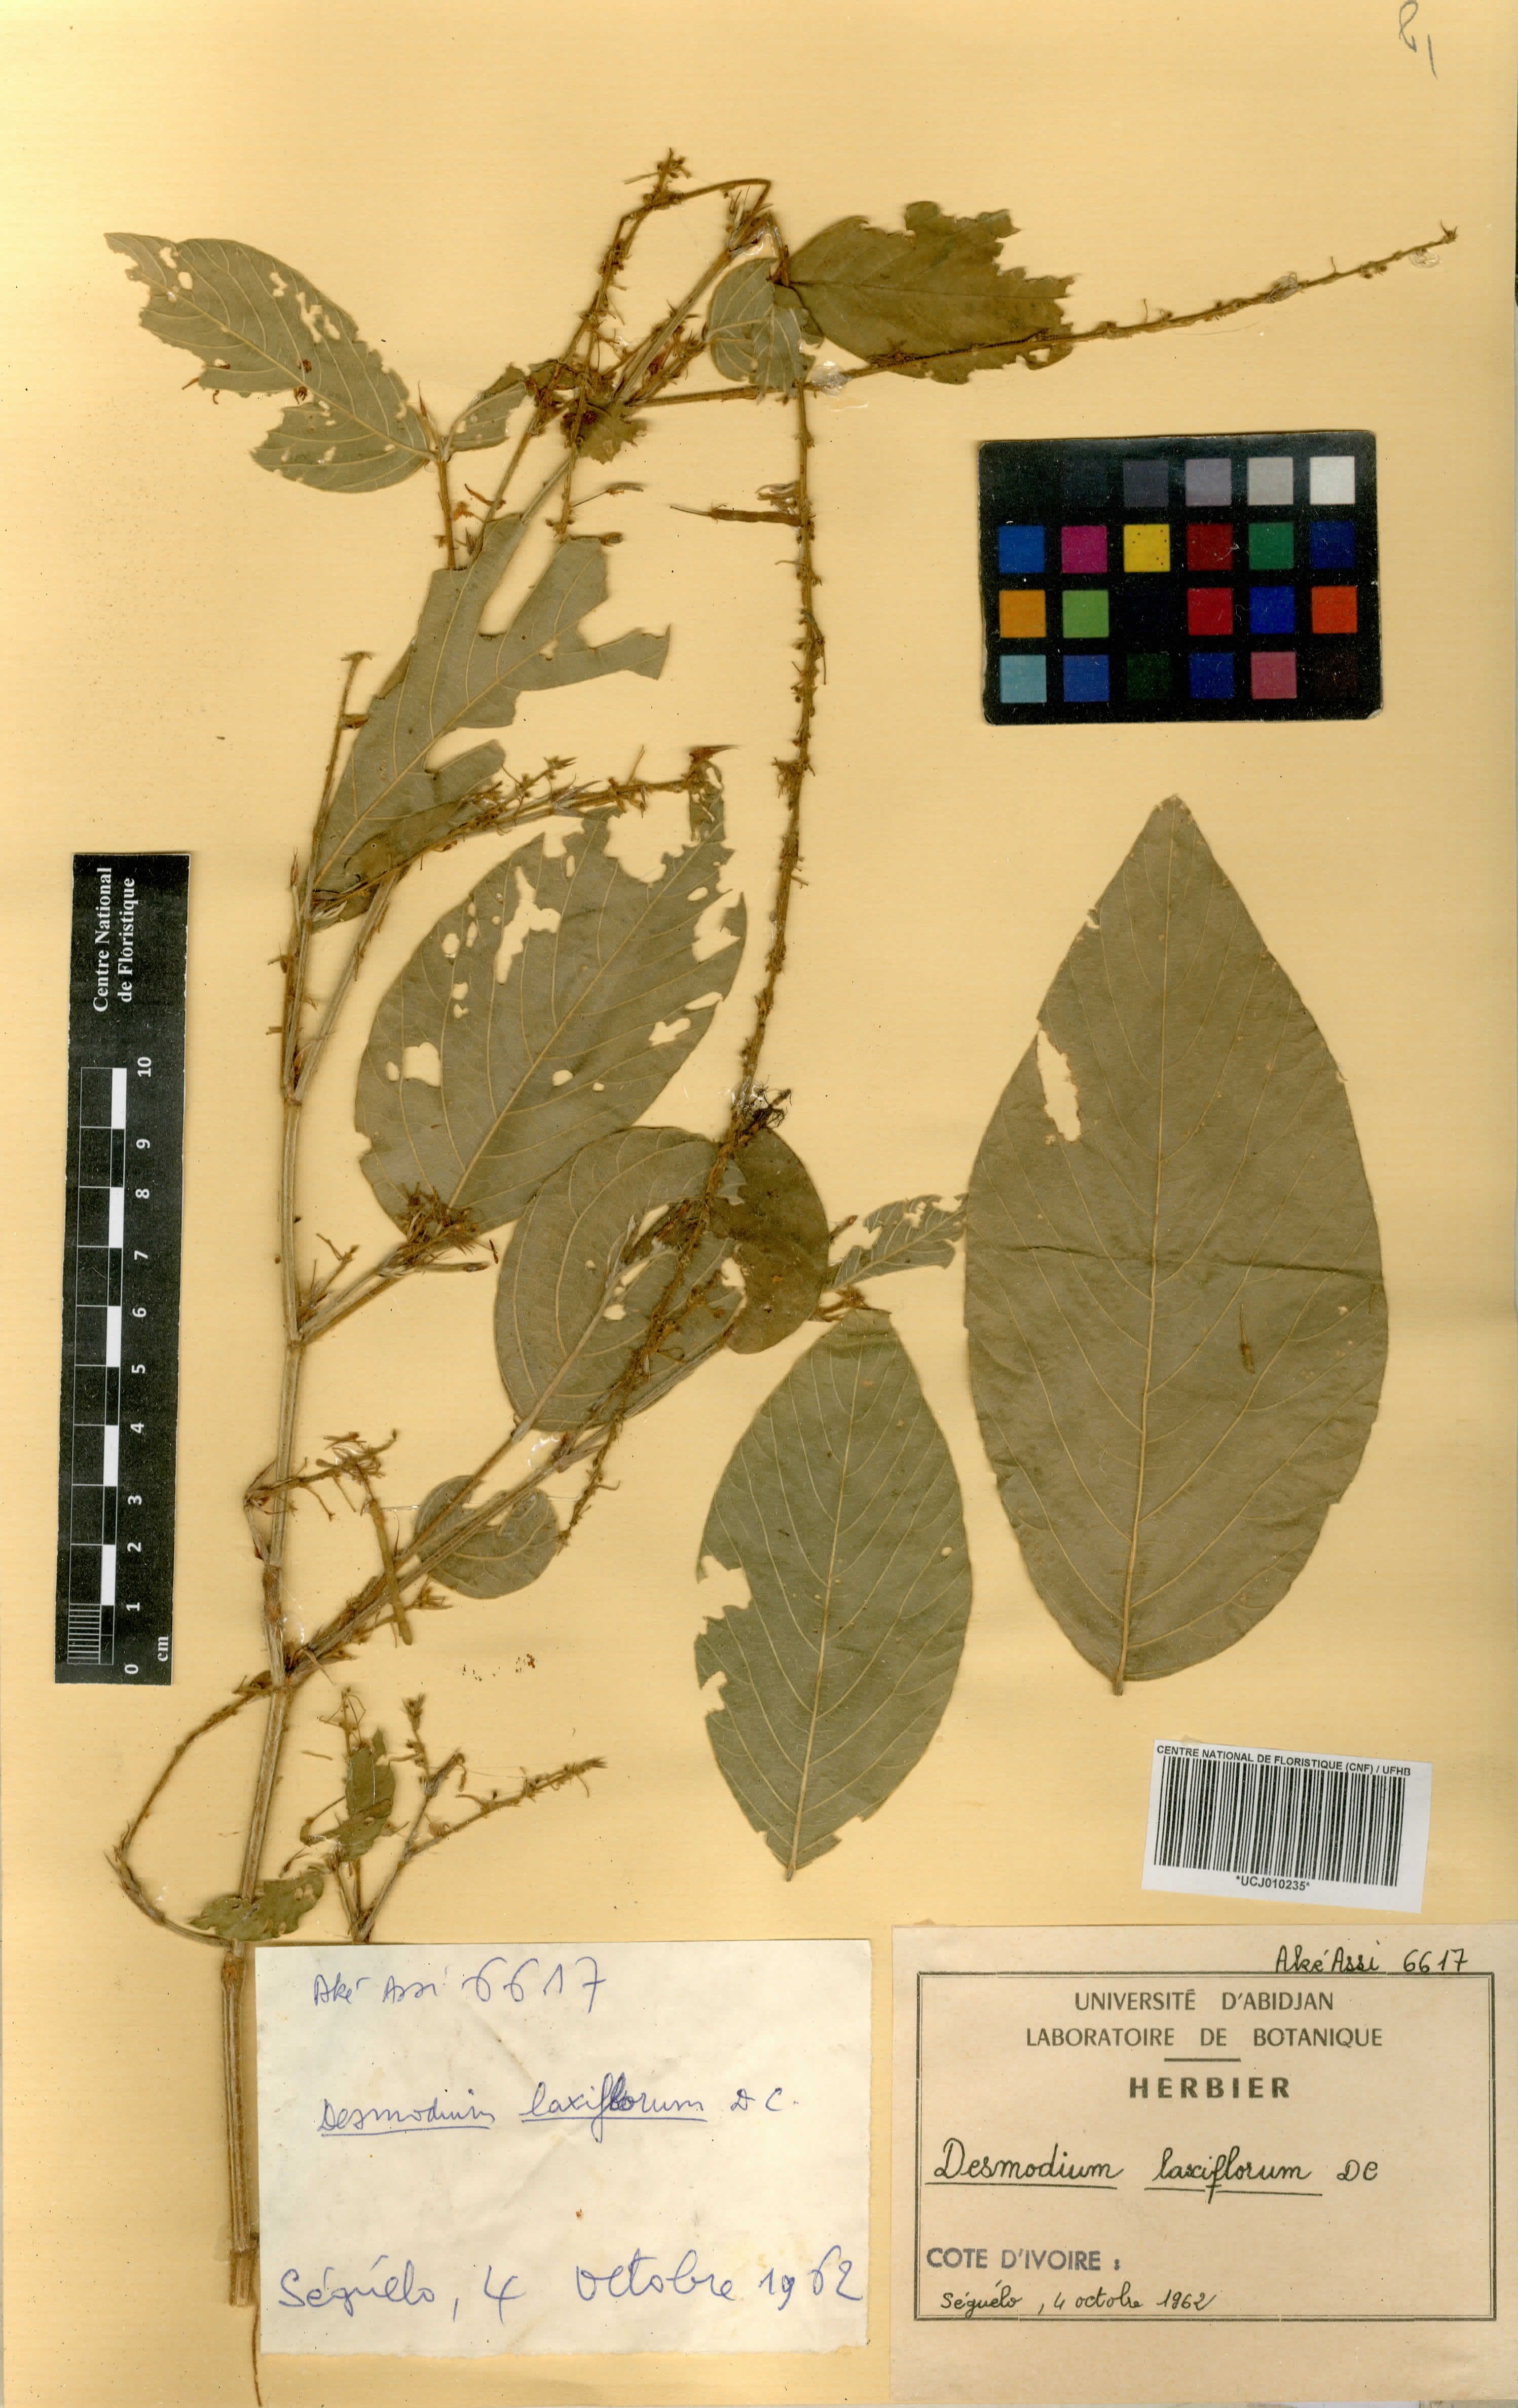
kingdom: Plantae
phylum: Tracheophyta
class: Magnoliopsida
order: Fabales
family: Fabaceae
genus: Sohmaea
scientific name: Sohmaea laxiflora
